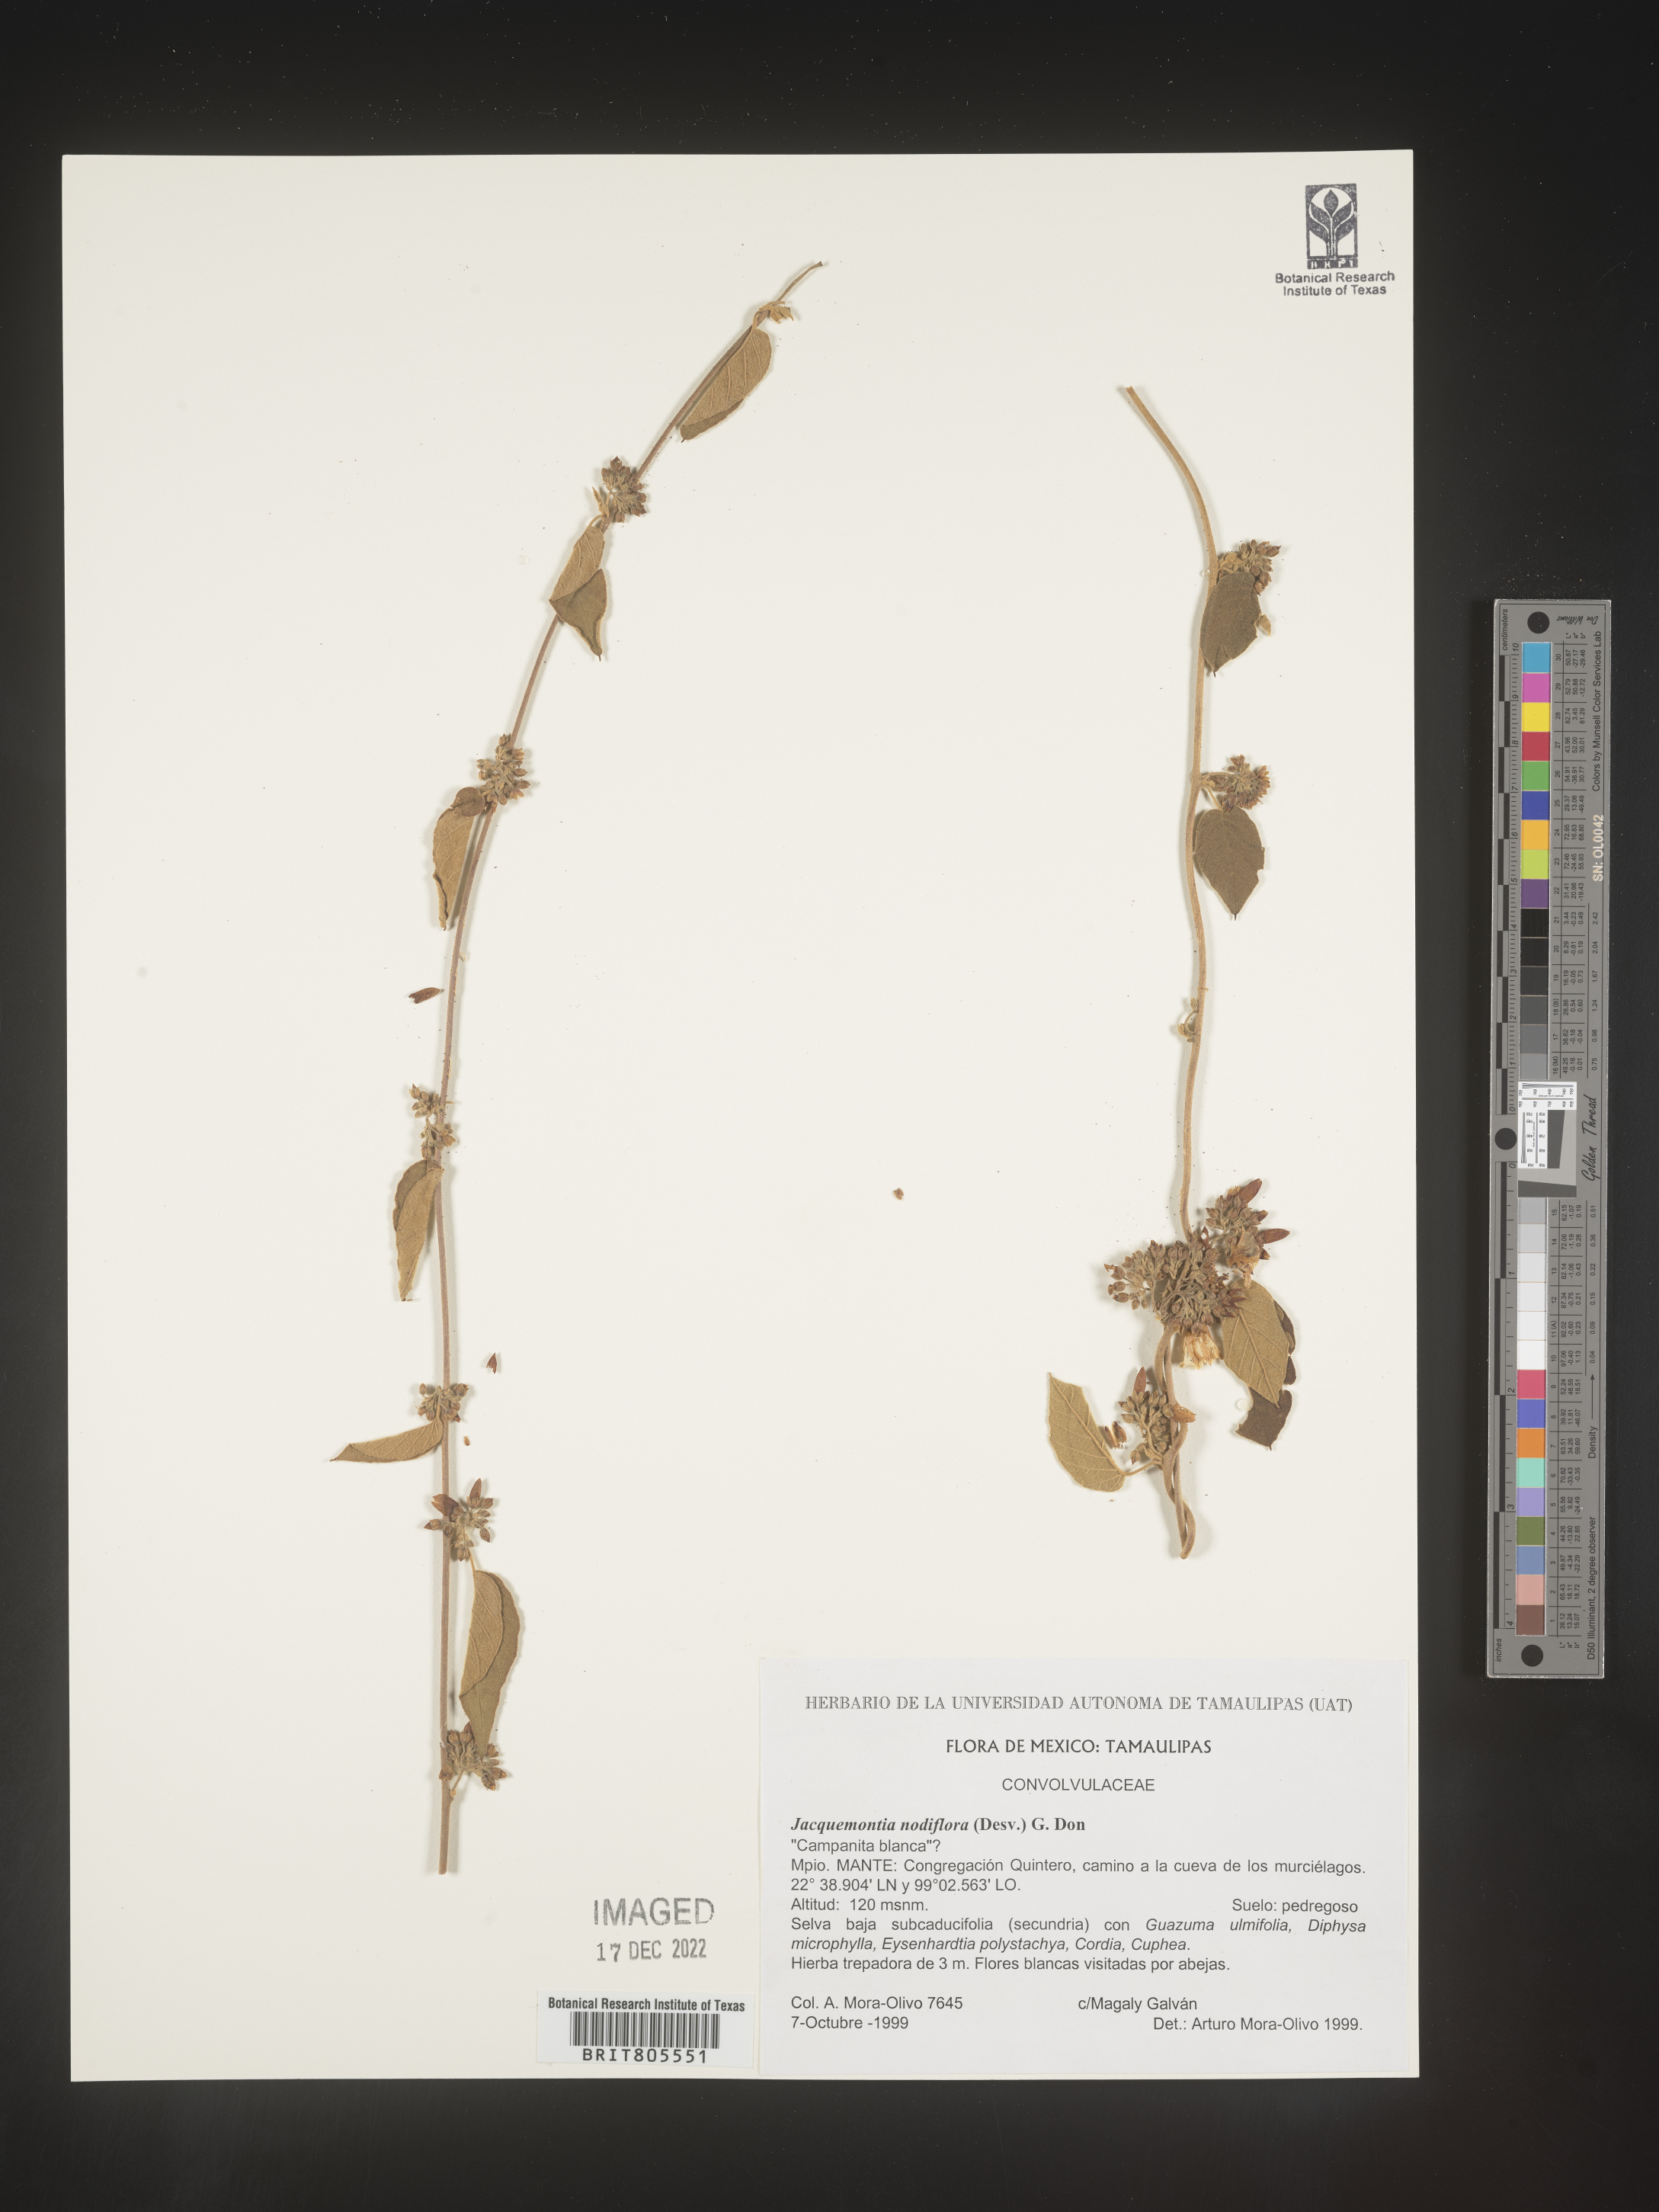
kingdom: Plantae
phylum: Tracheophyta
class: Magnoliopsida
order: Solanales
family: Convolvulaceae
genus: Jacquemontia
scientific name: Jacquemontia
